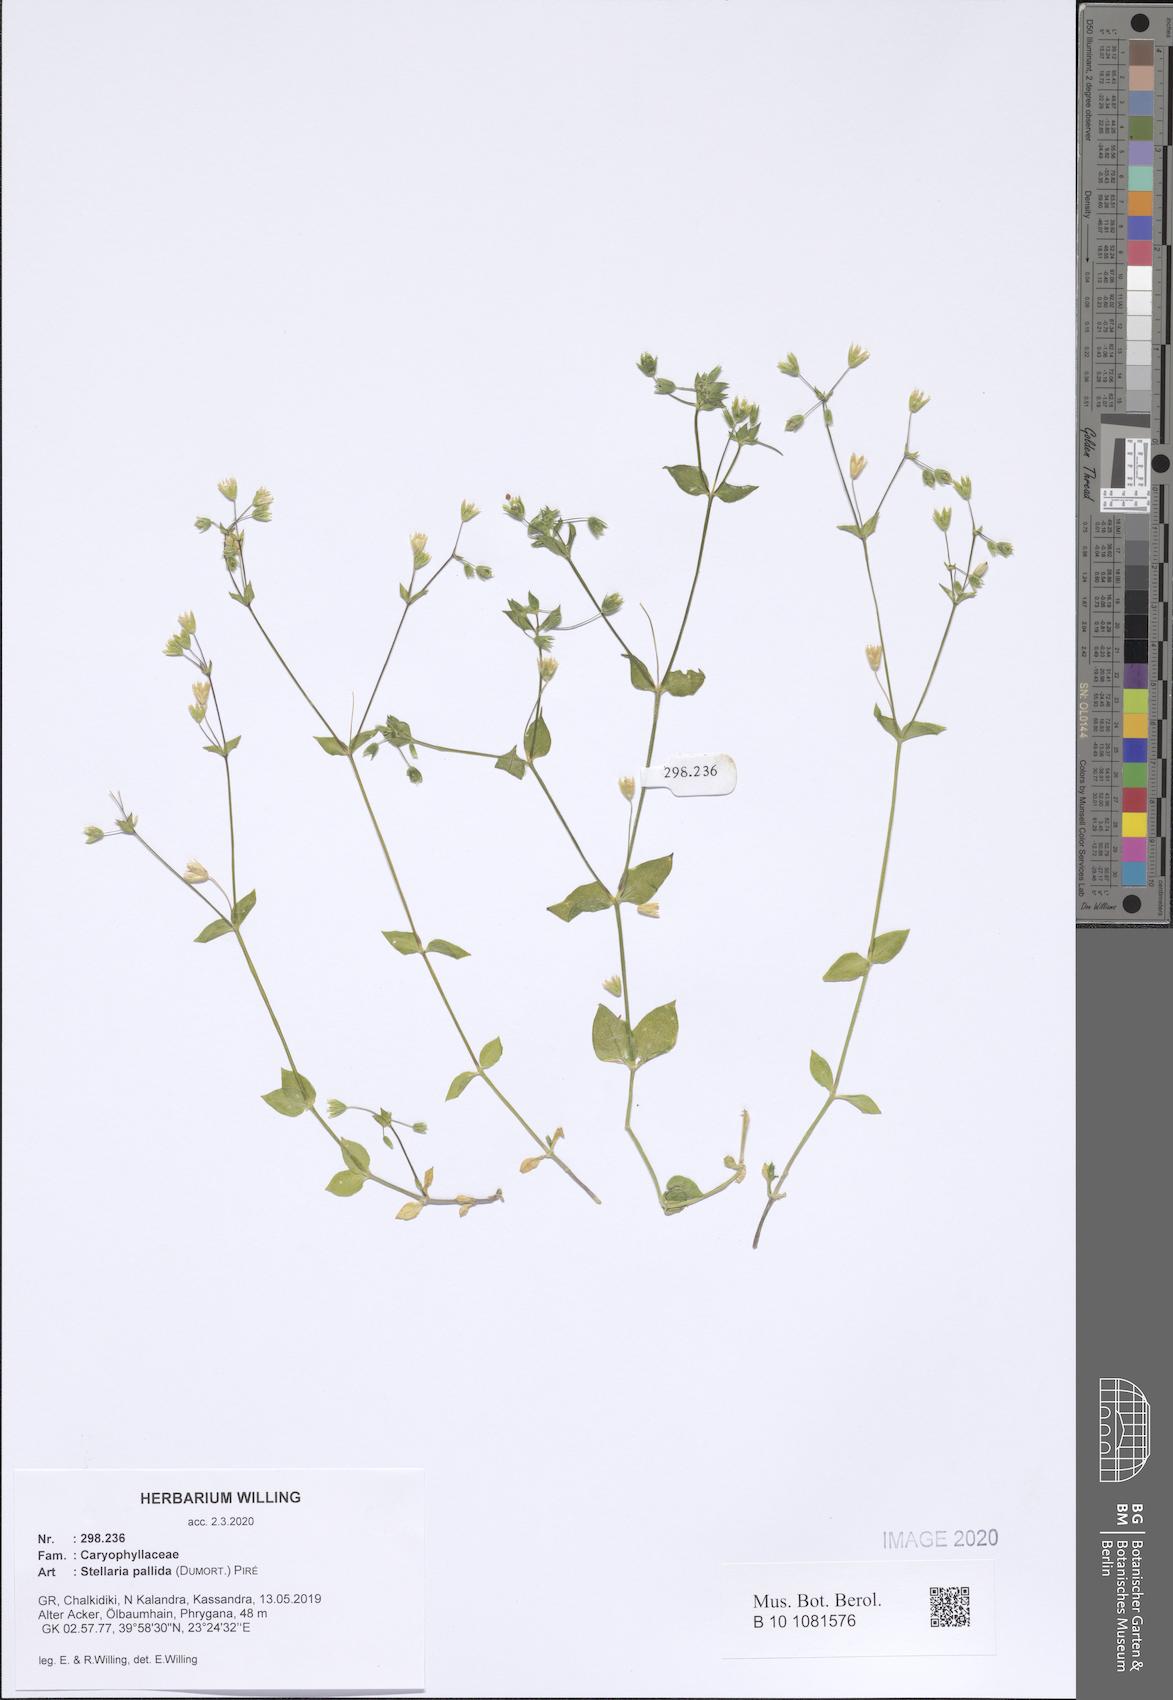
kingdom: Plantae
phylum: Tracheophyta
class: Magnoliopsida
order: Caryophyllales
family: Caryophyllaceae
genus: Stellaria
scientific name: Stellaria apetala
